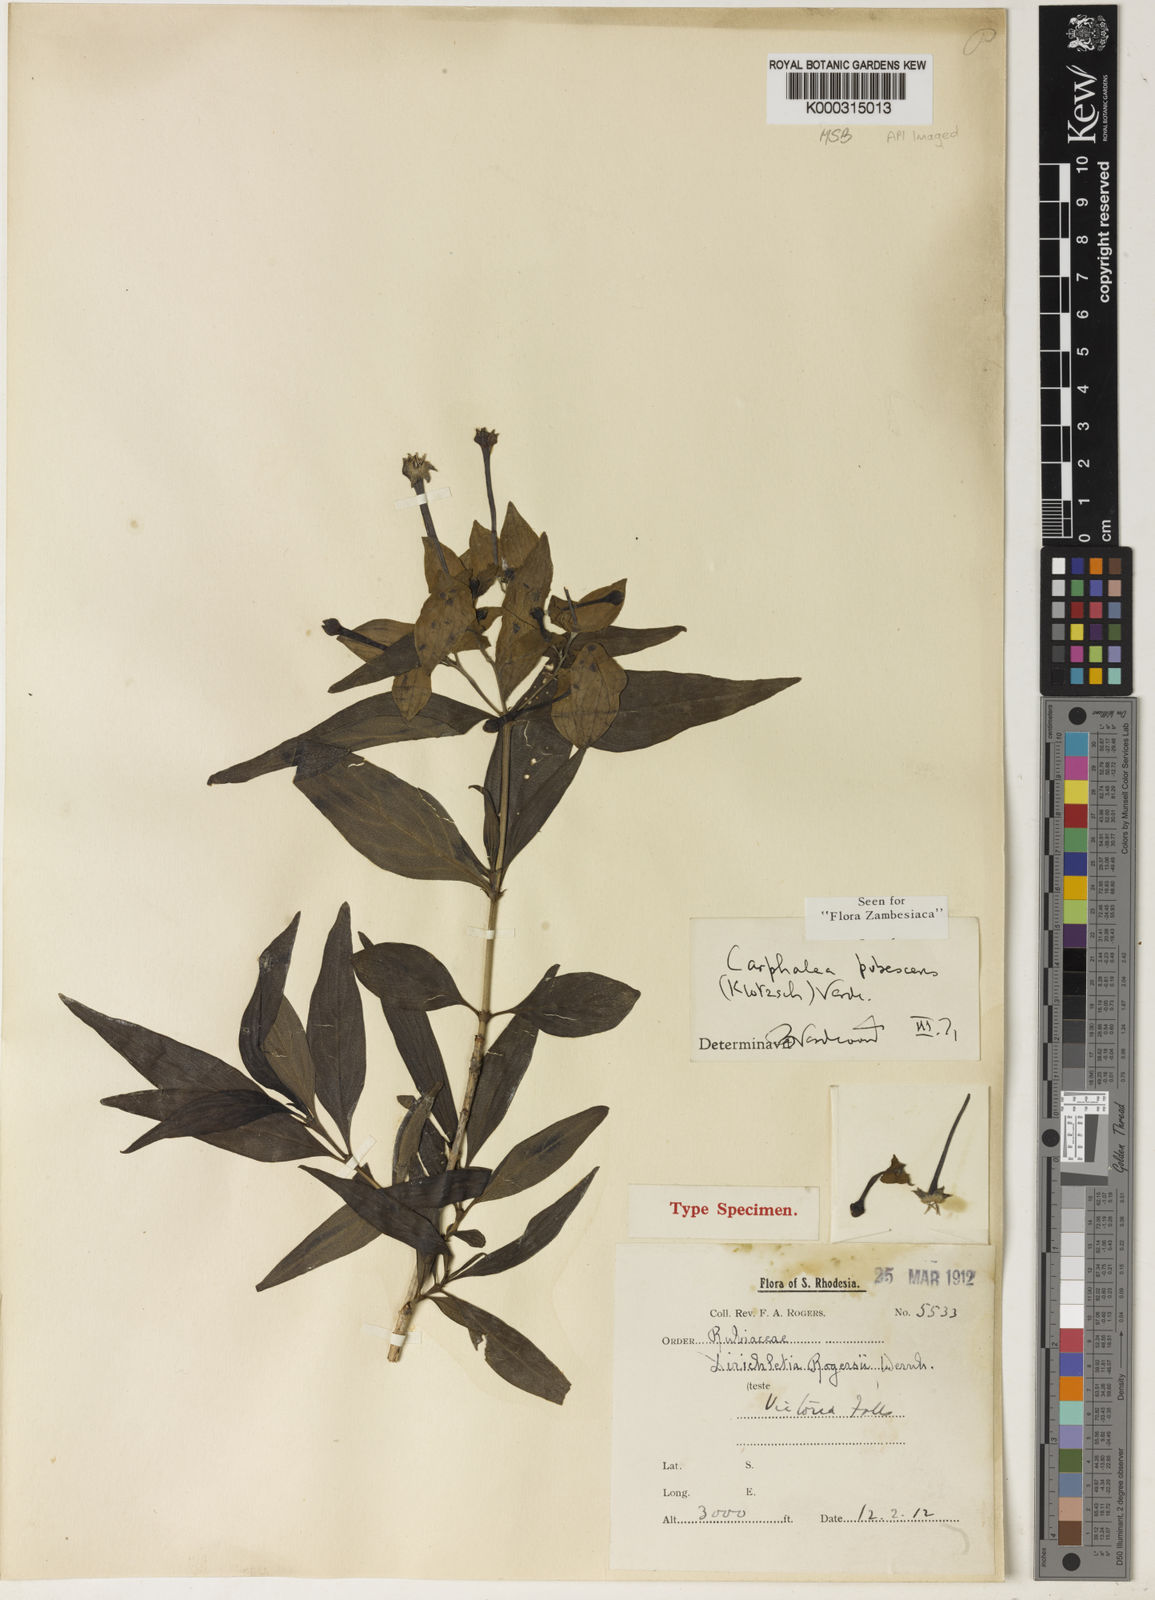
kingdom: Plantae
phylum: Tracheophyta
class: Magnoliopsida
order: Gentianales
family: Rubiaceae
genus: Dirichletia
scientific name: Dirichletia pubescens
